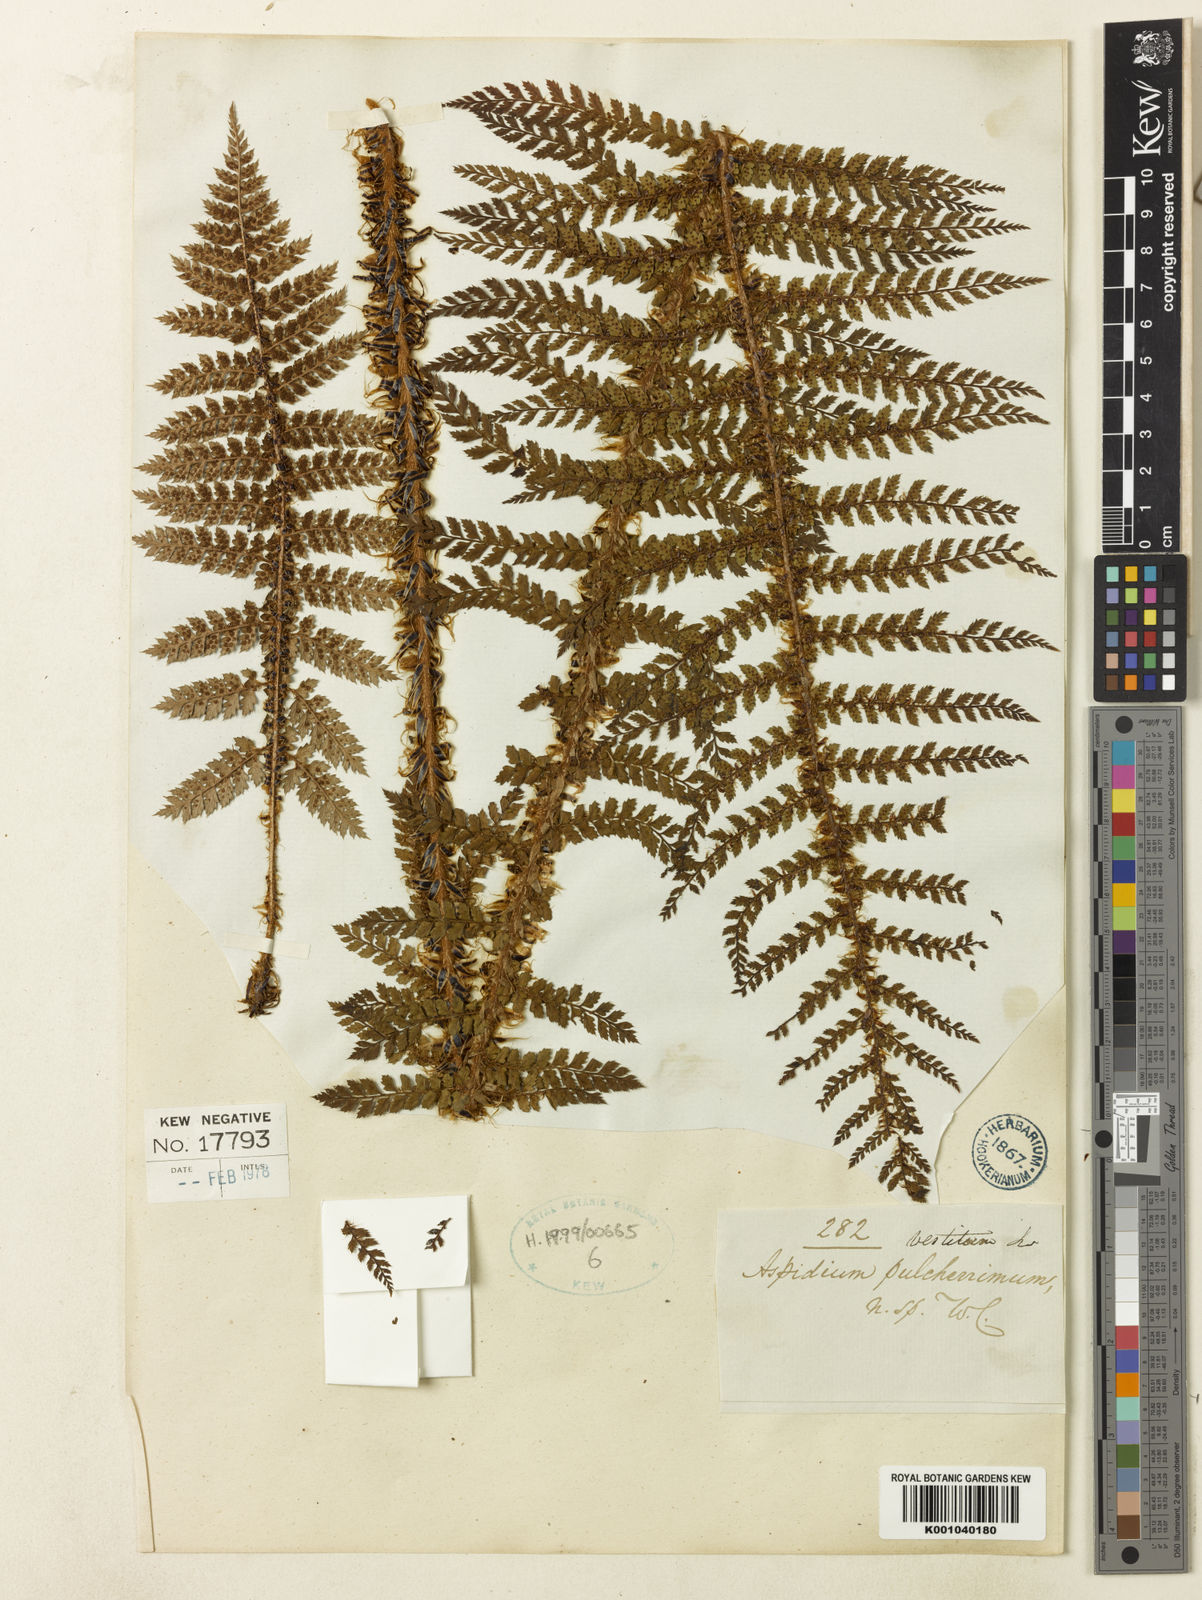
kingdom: Plantae
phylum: Tracheophyta
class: Polypodiopsida
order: Polypodiales
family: Dryopteridaceae
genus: Polystichum
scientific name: Polystichum vestitum
